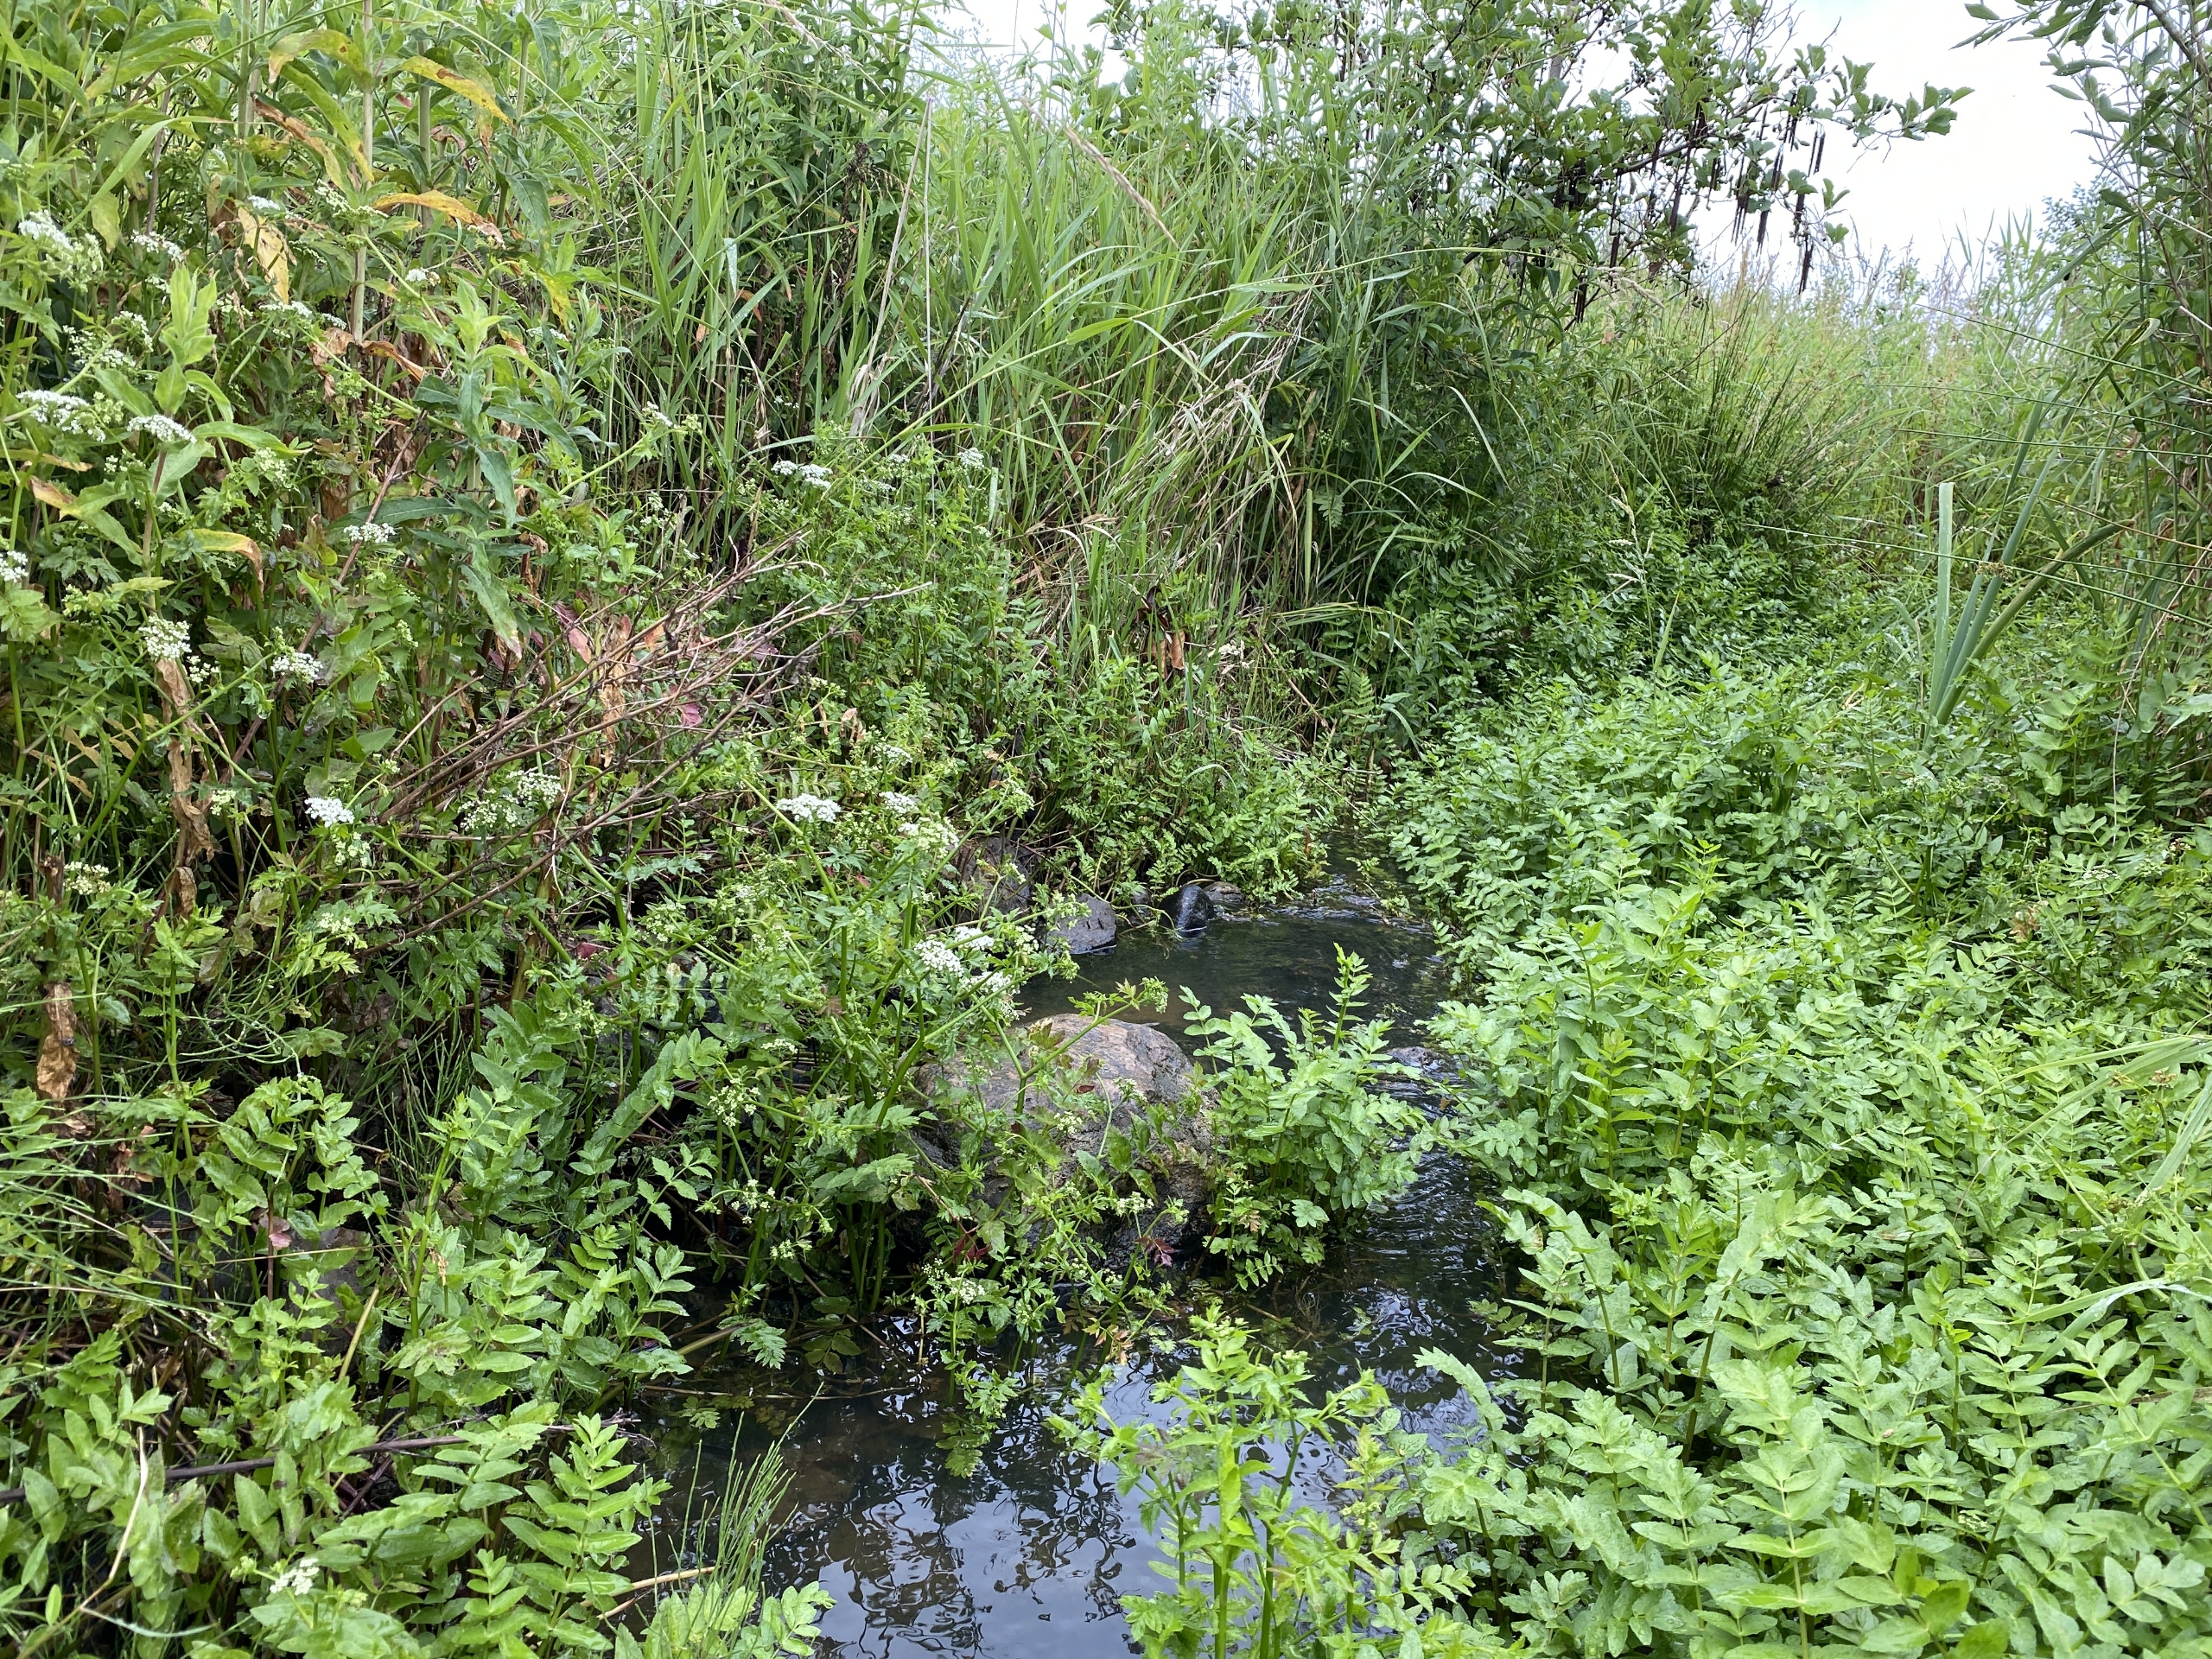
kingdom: Plantae
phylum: Tracheophyta
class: Magnoliopsida
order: Apiales
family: Apiaceae
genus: Berula
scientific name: Berula erecta
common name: Sideskærm
